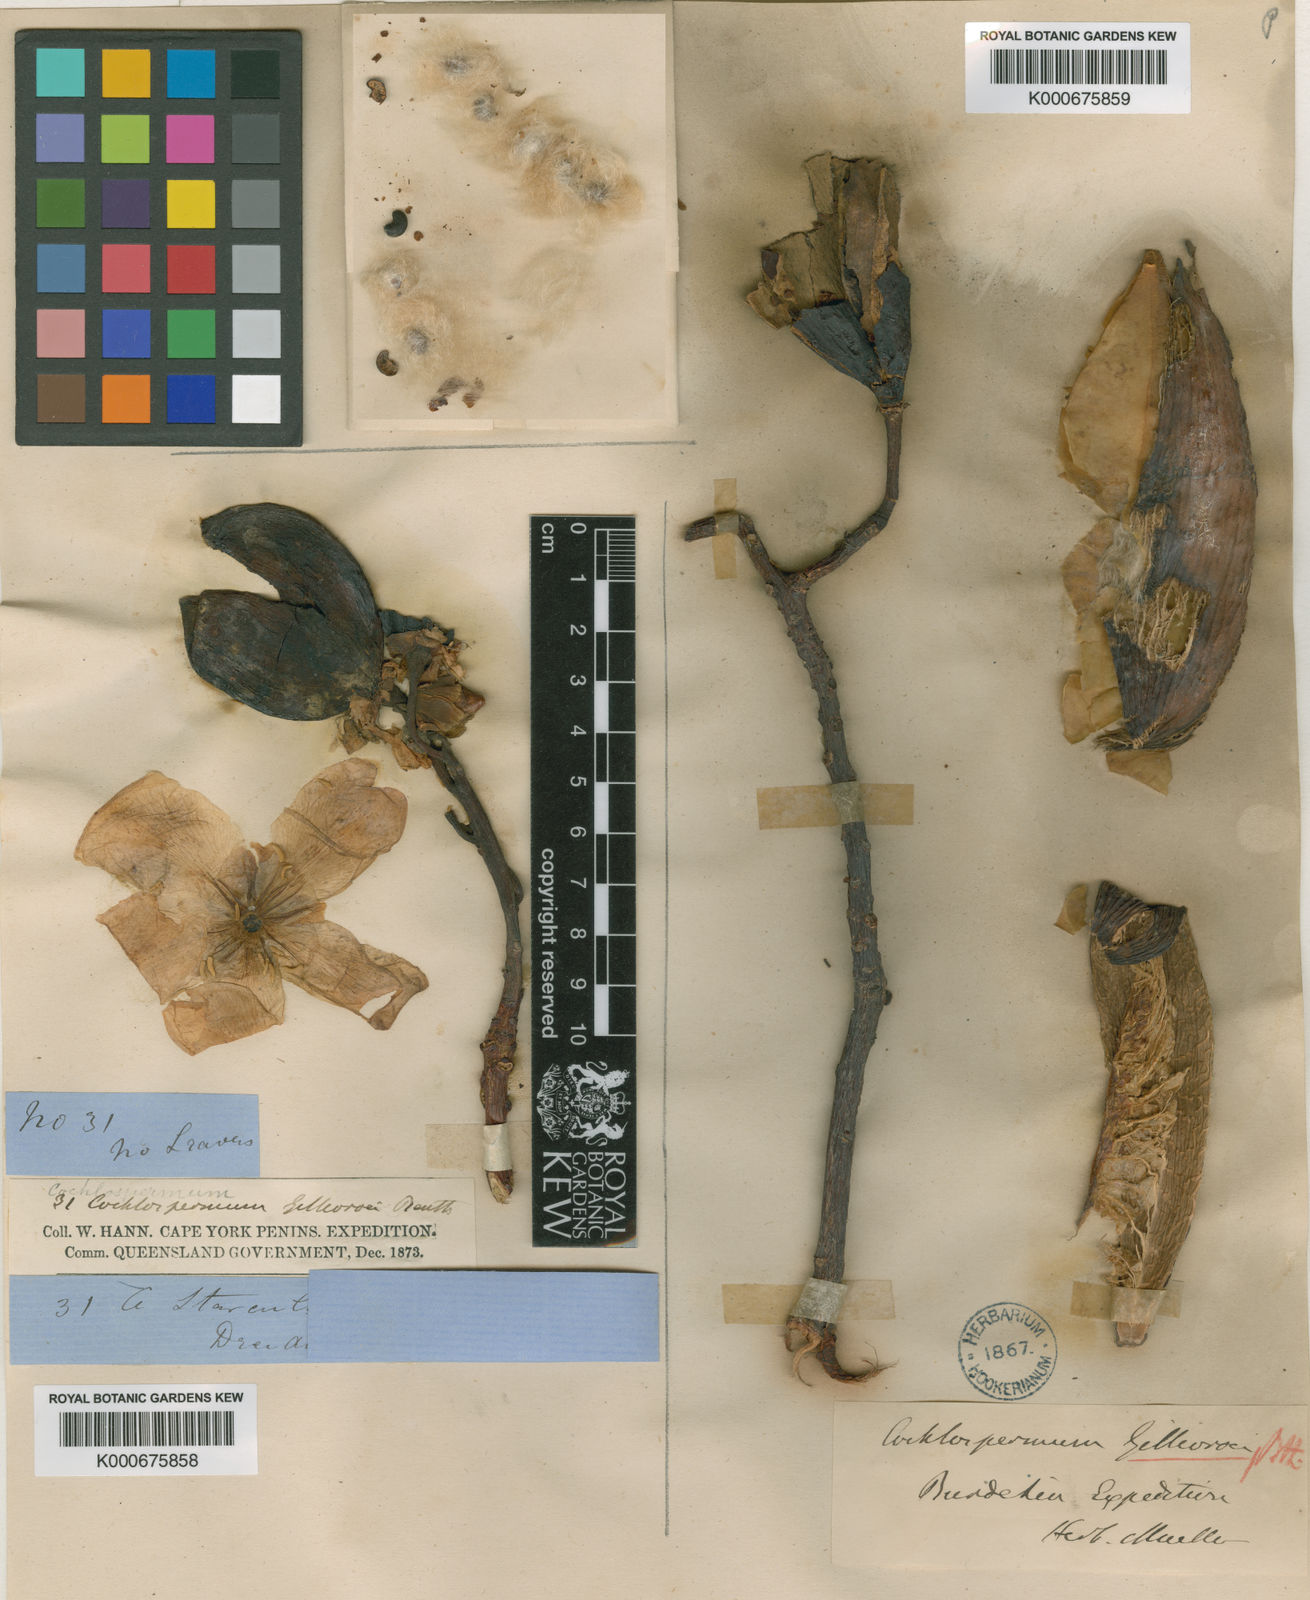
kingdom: Plantae
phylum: Tracheophyta
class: Magnoliopsida
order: Malvales
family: Cochlospermaceae
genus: Cochlospermum
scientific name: Cochlospermum gillivraei
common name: Cottontree
